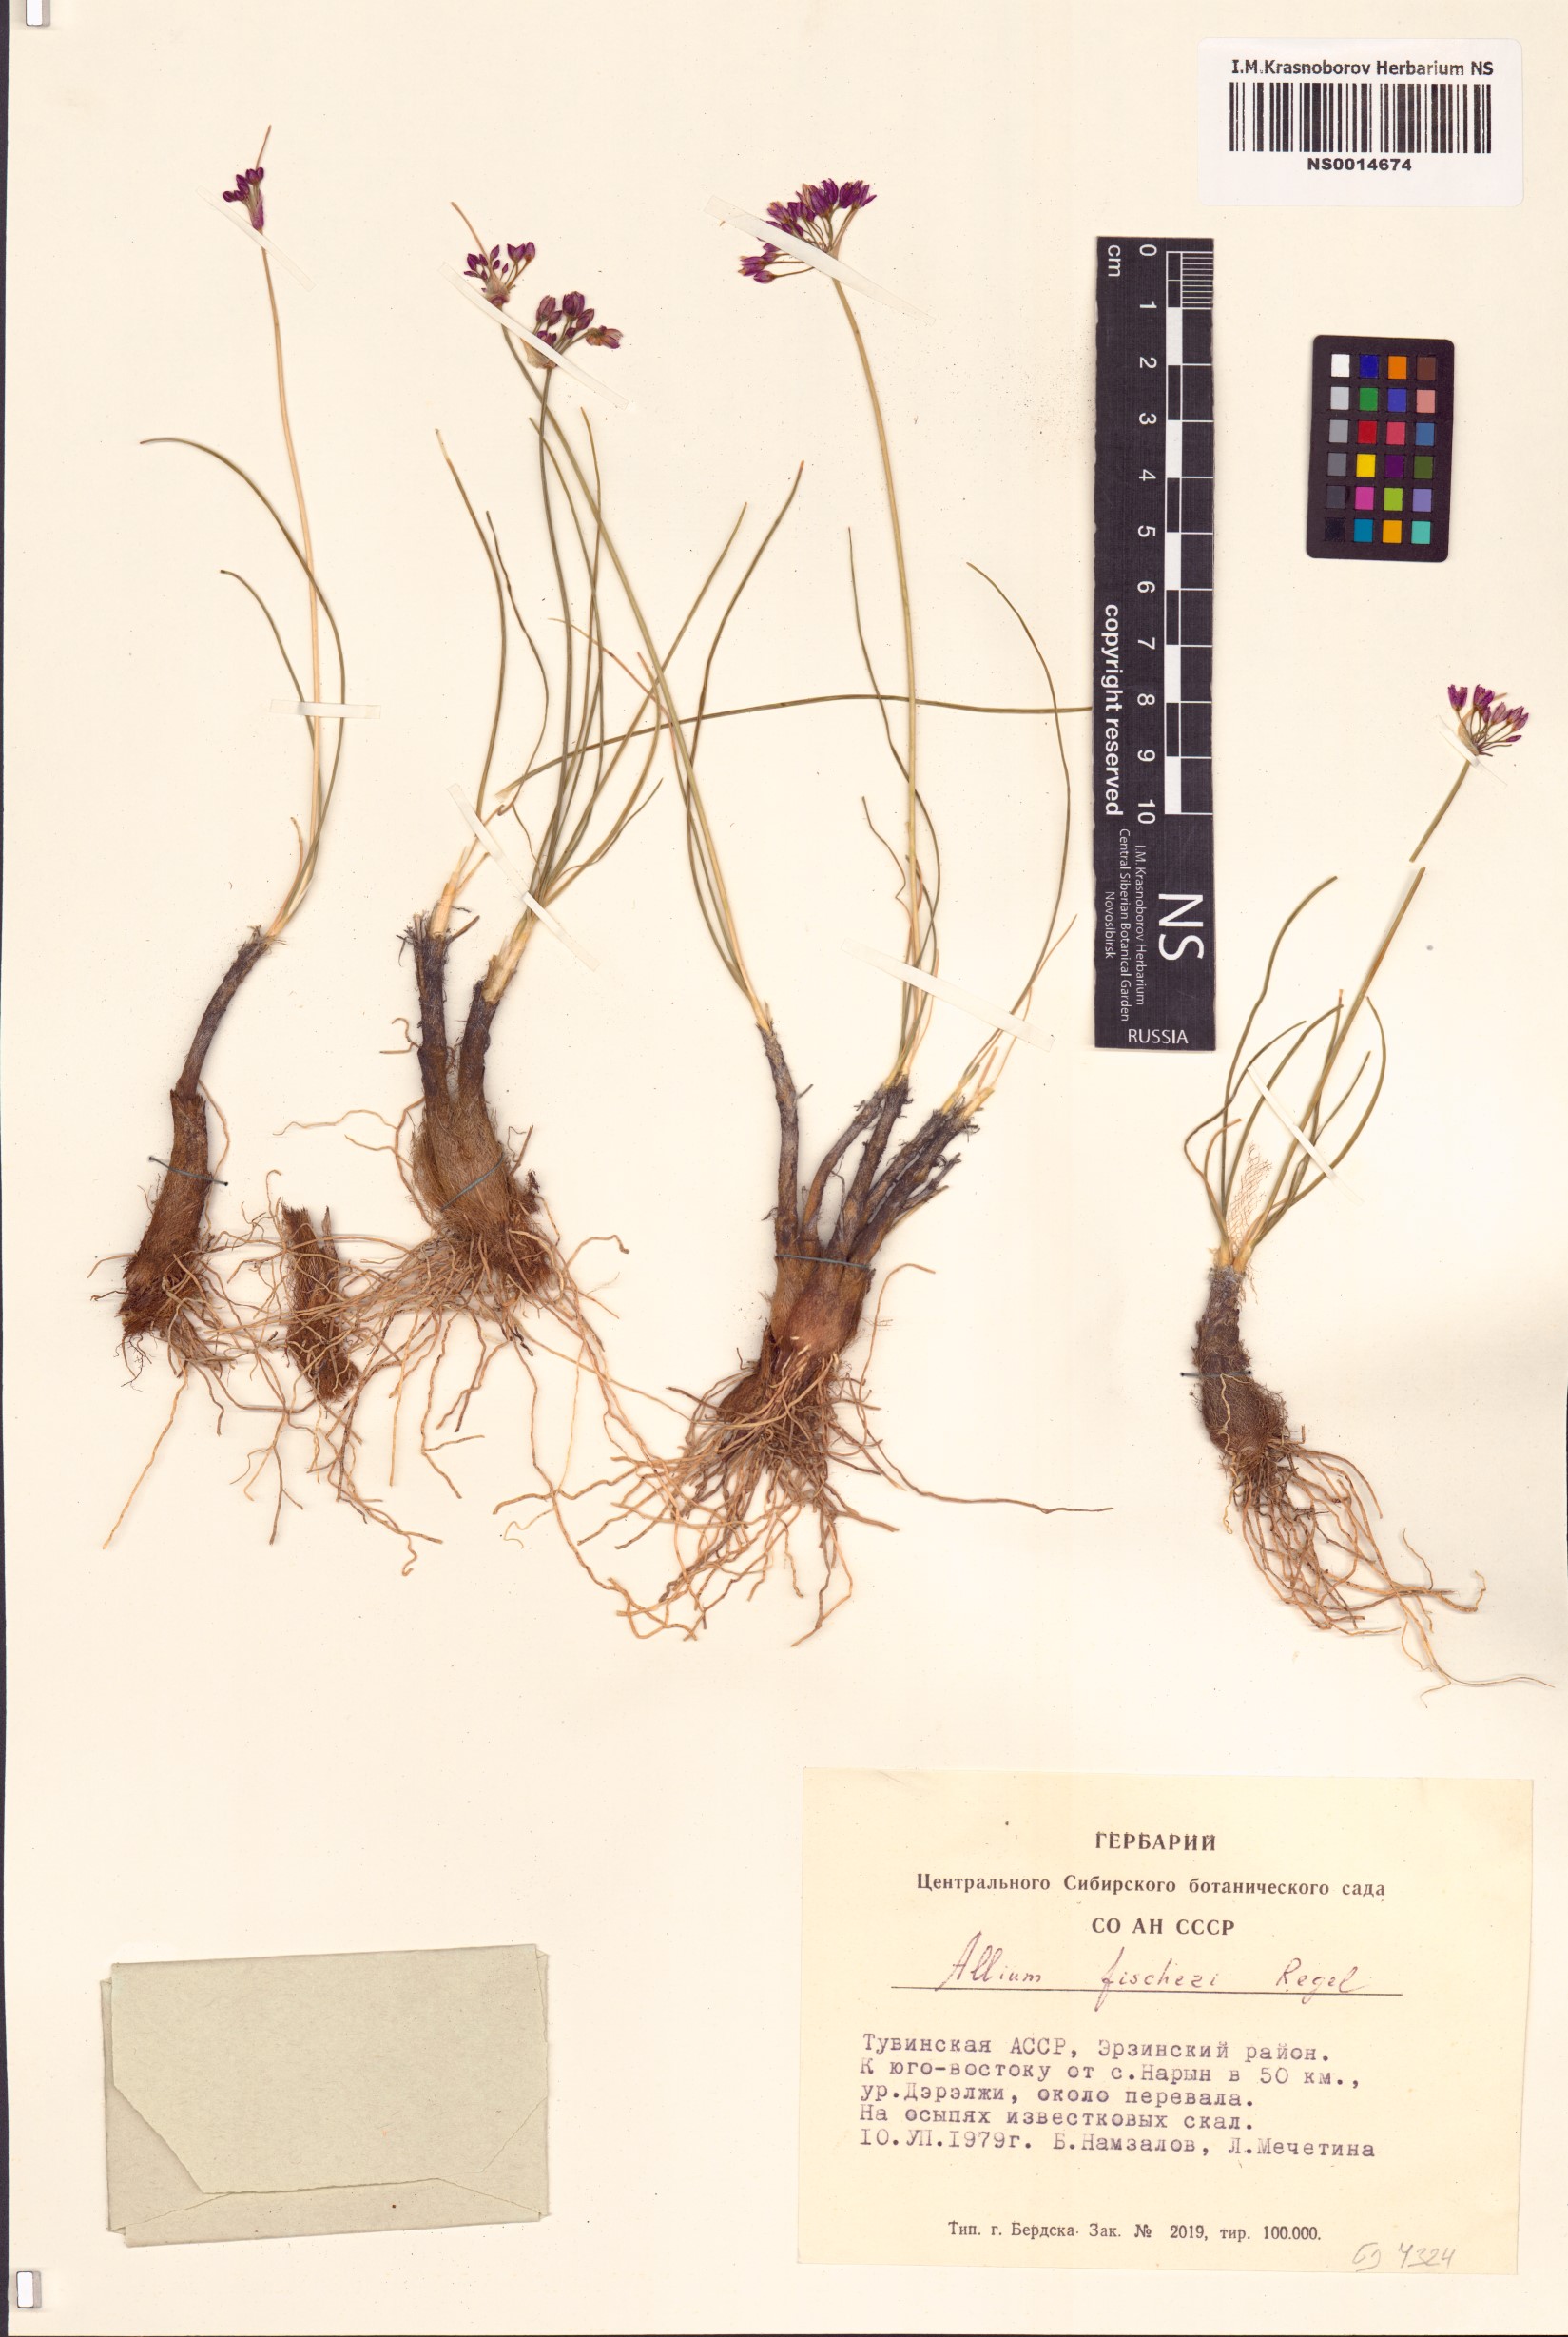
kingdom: Plantae
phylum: Tracheophyta
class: Liliopsida
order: Asparagales
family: Amaryllidaceae
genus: Allium
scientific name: Allium eduardi
